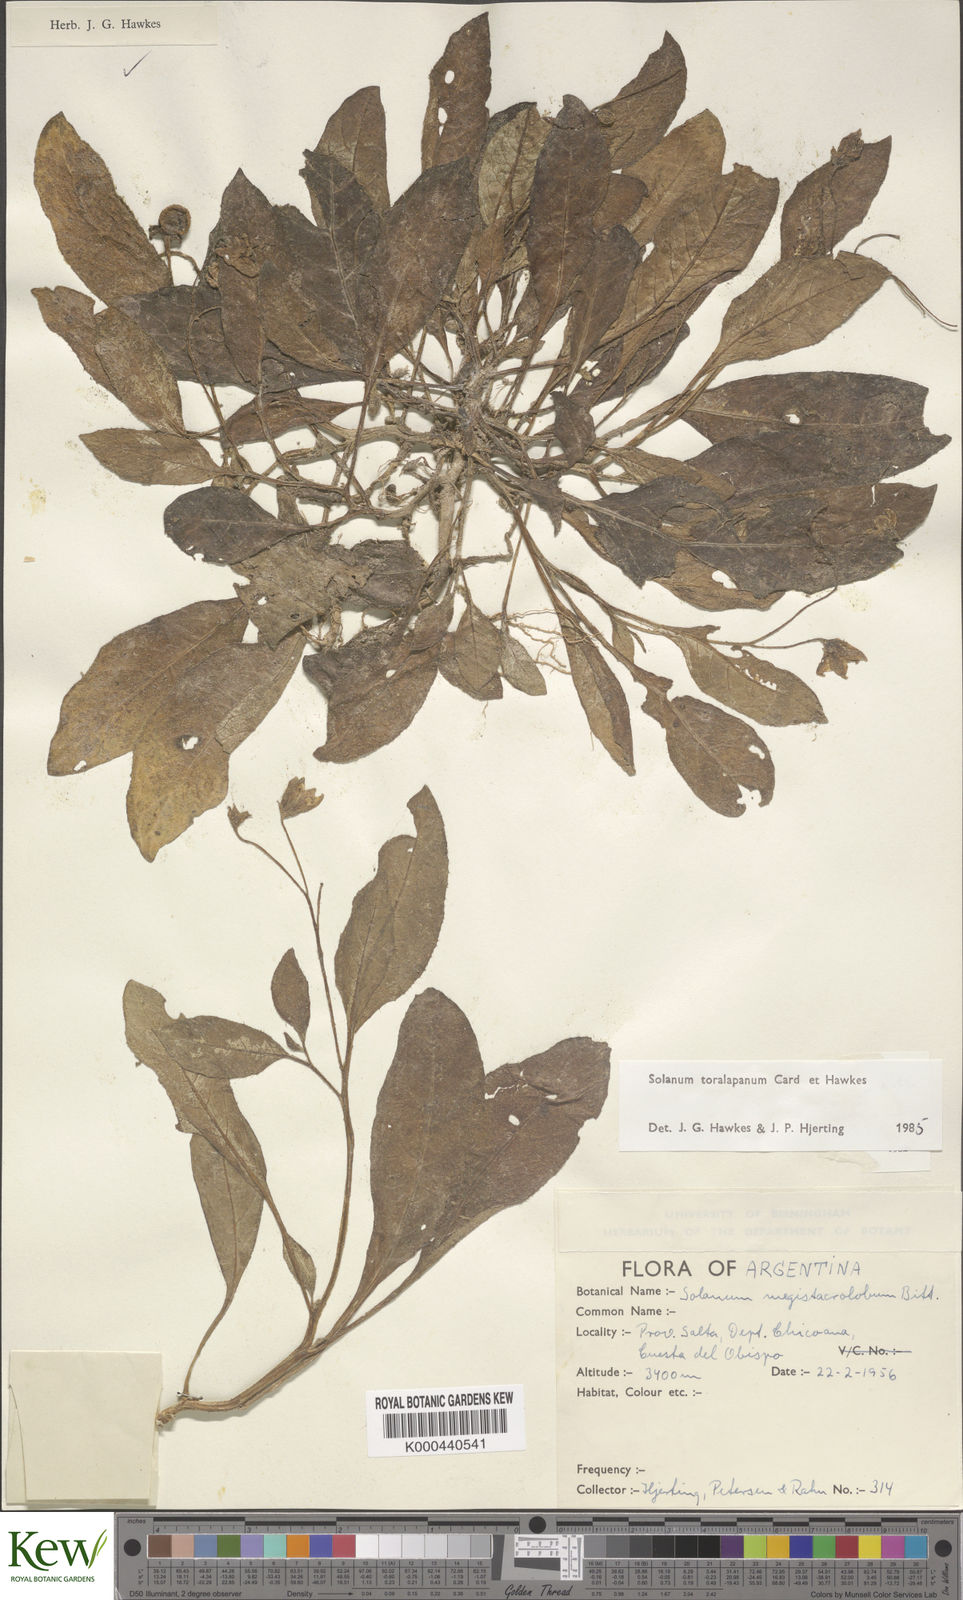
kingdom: Plantae
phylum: Tracheophyta
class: Magnoliopsida
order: Solanales
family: Solanaceae
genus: Solanum
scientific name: Solanum
